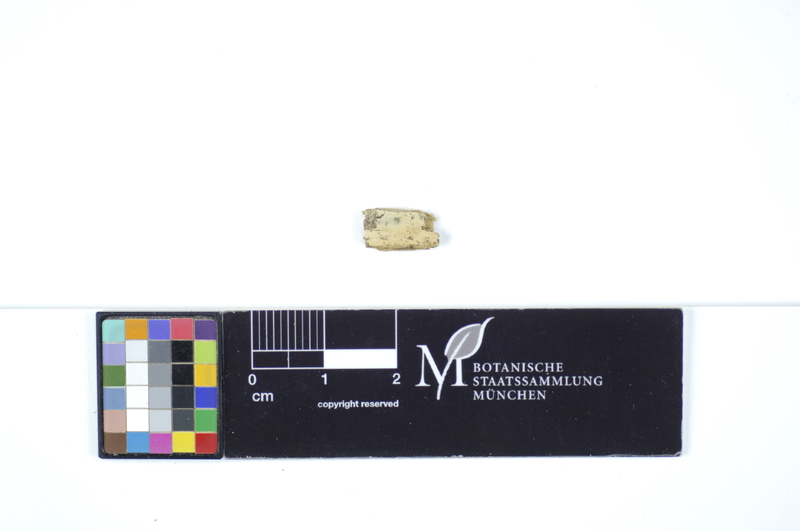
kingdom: Fungi
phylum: Basidiomycota
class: Agaricomycetes
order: Polyporales
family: Hyphodermataceae
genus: Hyphoderma
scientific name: Hyphoderma probatum
